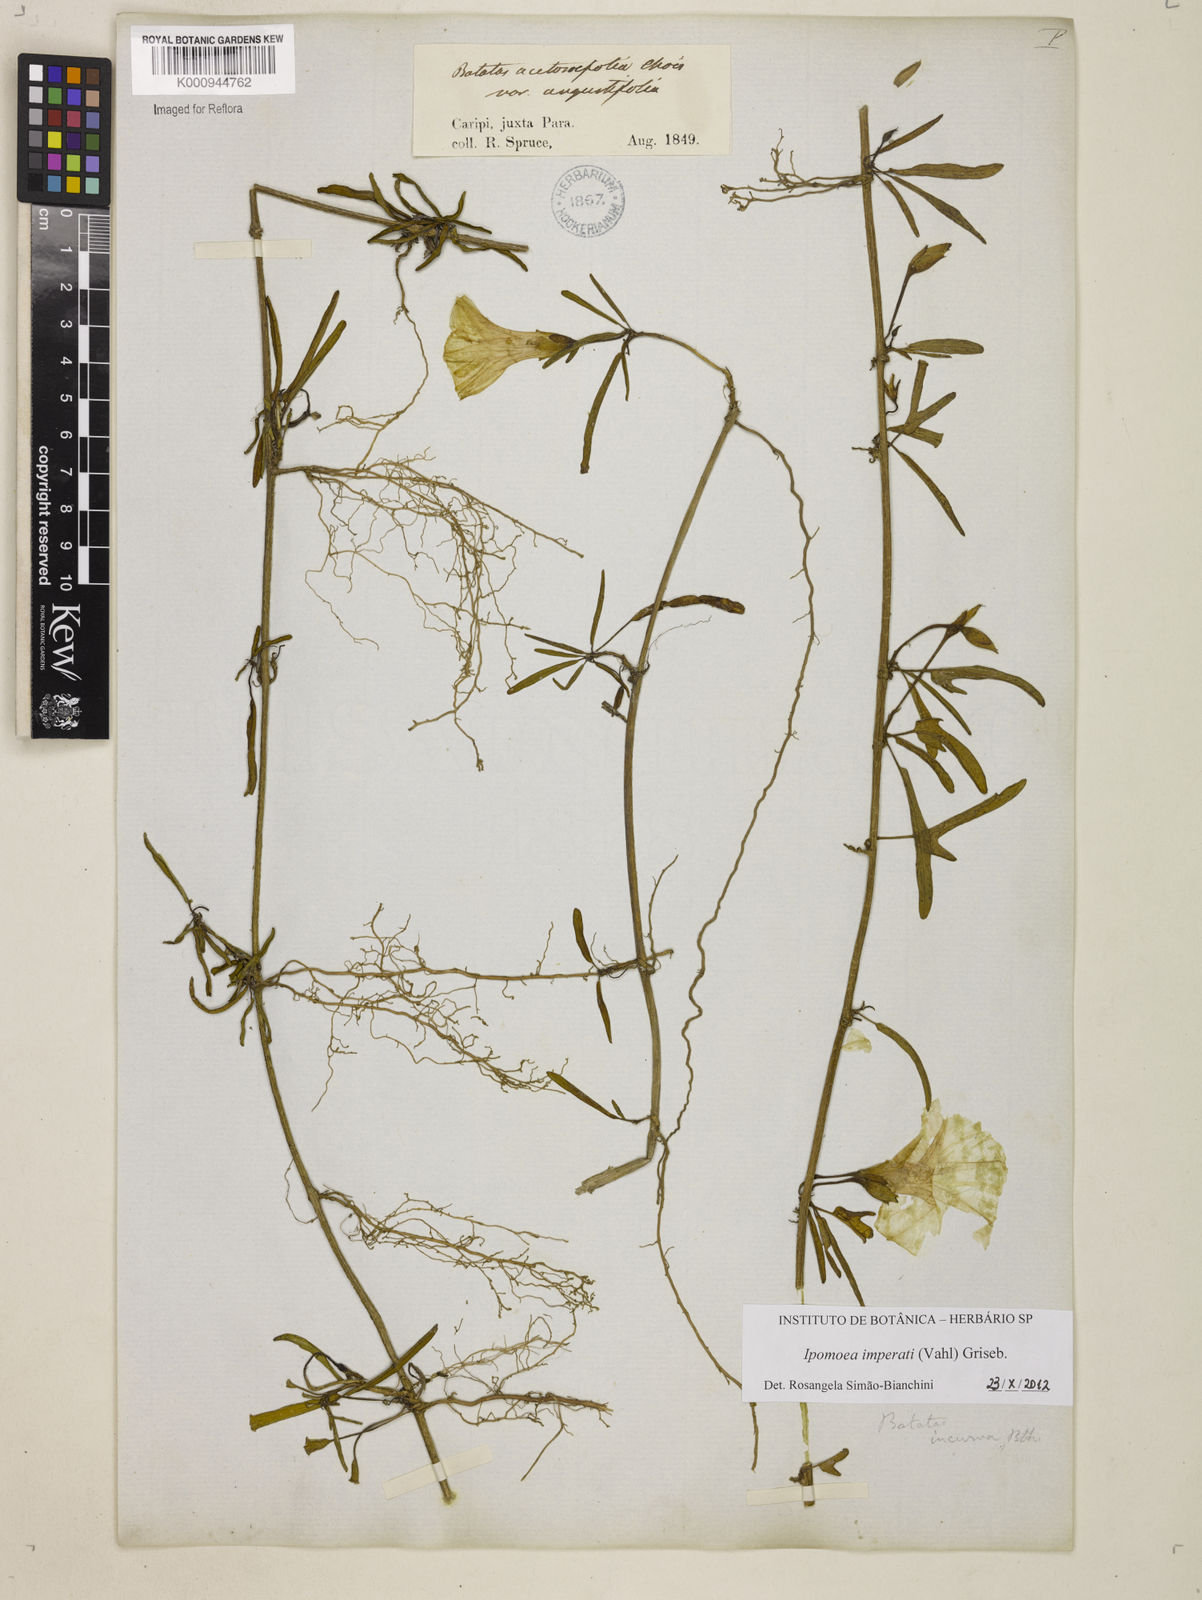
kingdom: Plantae
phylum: Tracheophyta
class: Magnoliopsida
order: Solanales
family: Convolvulaceae
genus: Ipomoea
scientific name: Ipomoea
